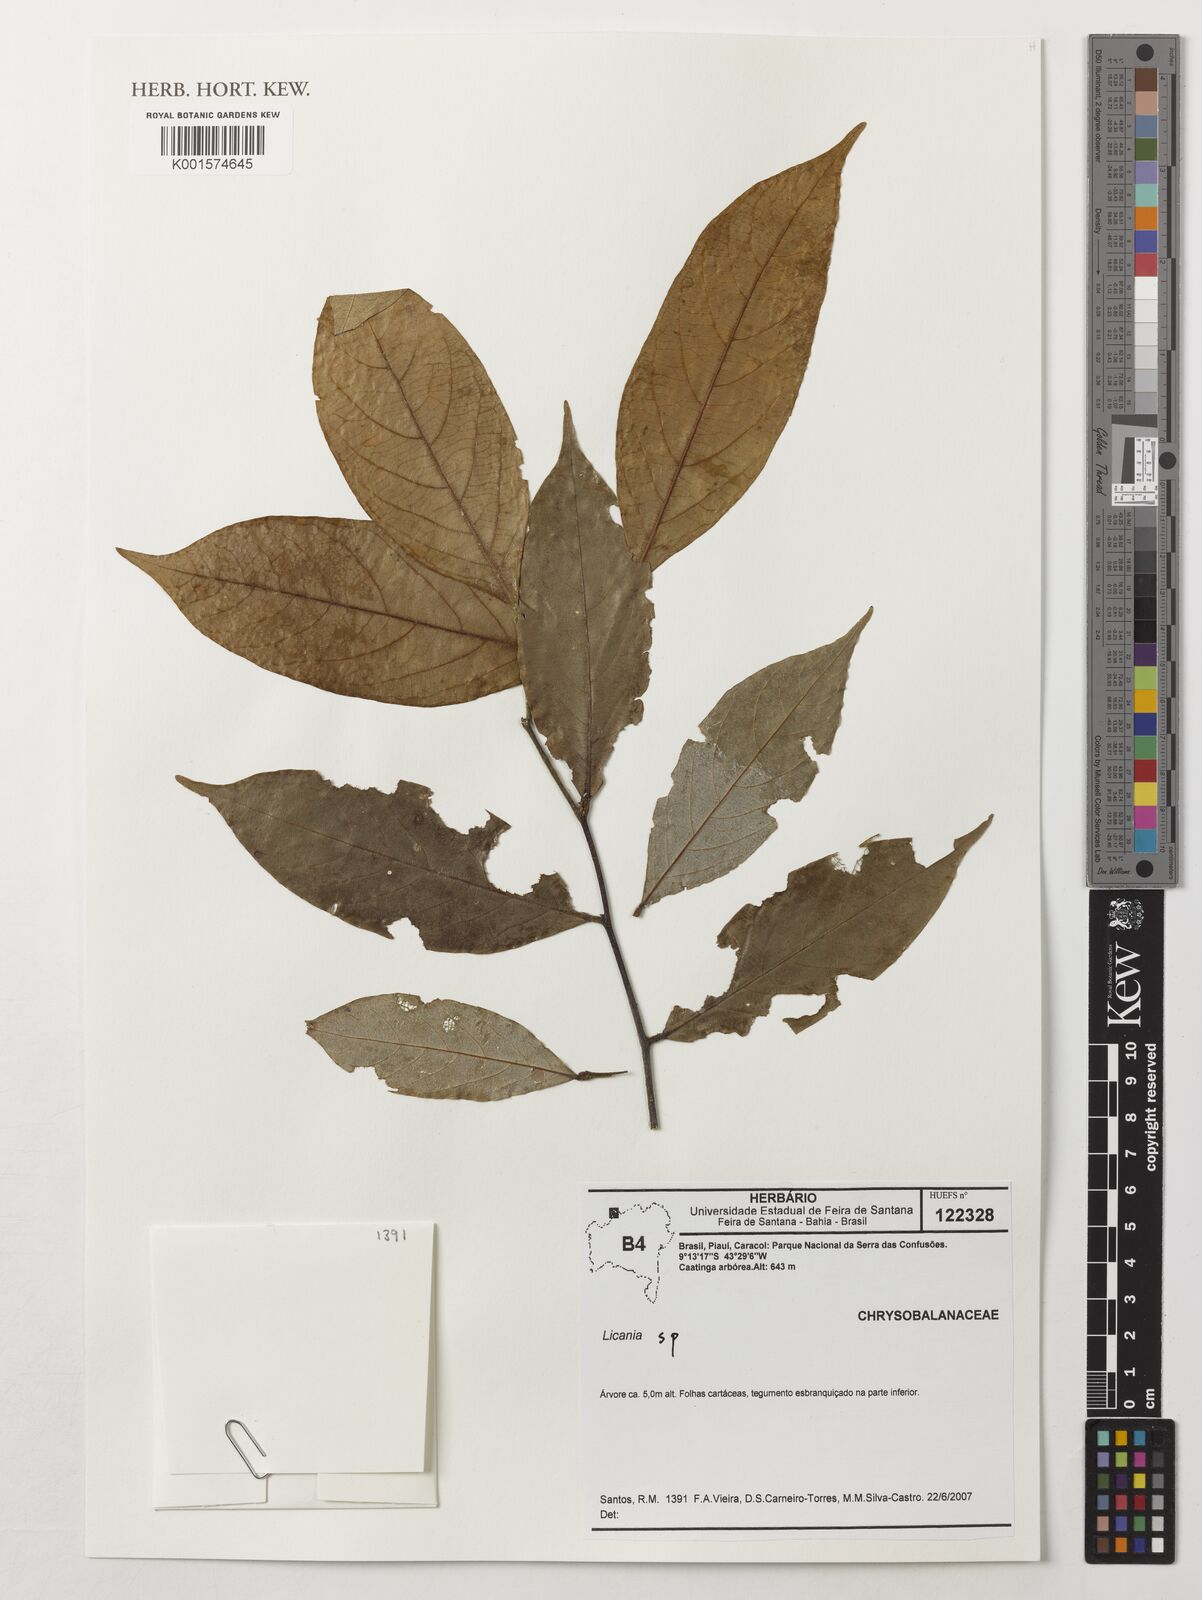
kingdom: Plantae
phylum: Tracheophyta
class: Magnoliopsida
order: Malpighiales
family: Chrysobalanaceae
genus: Licania
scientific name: Licania
